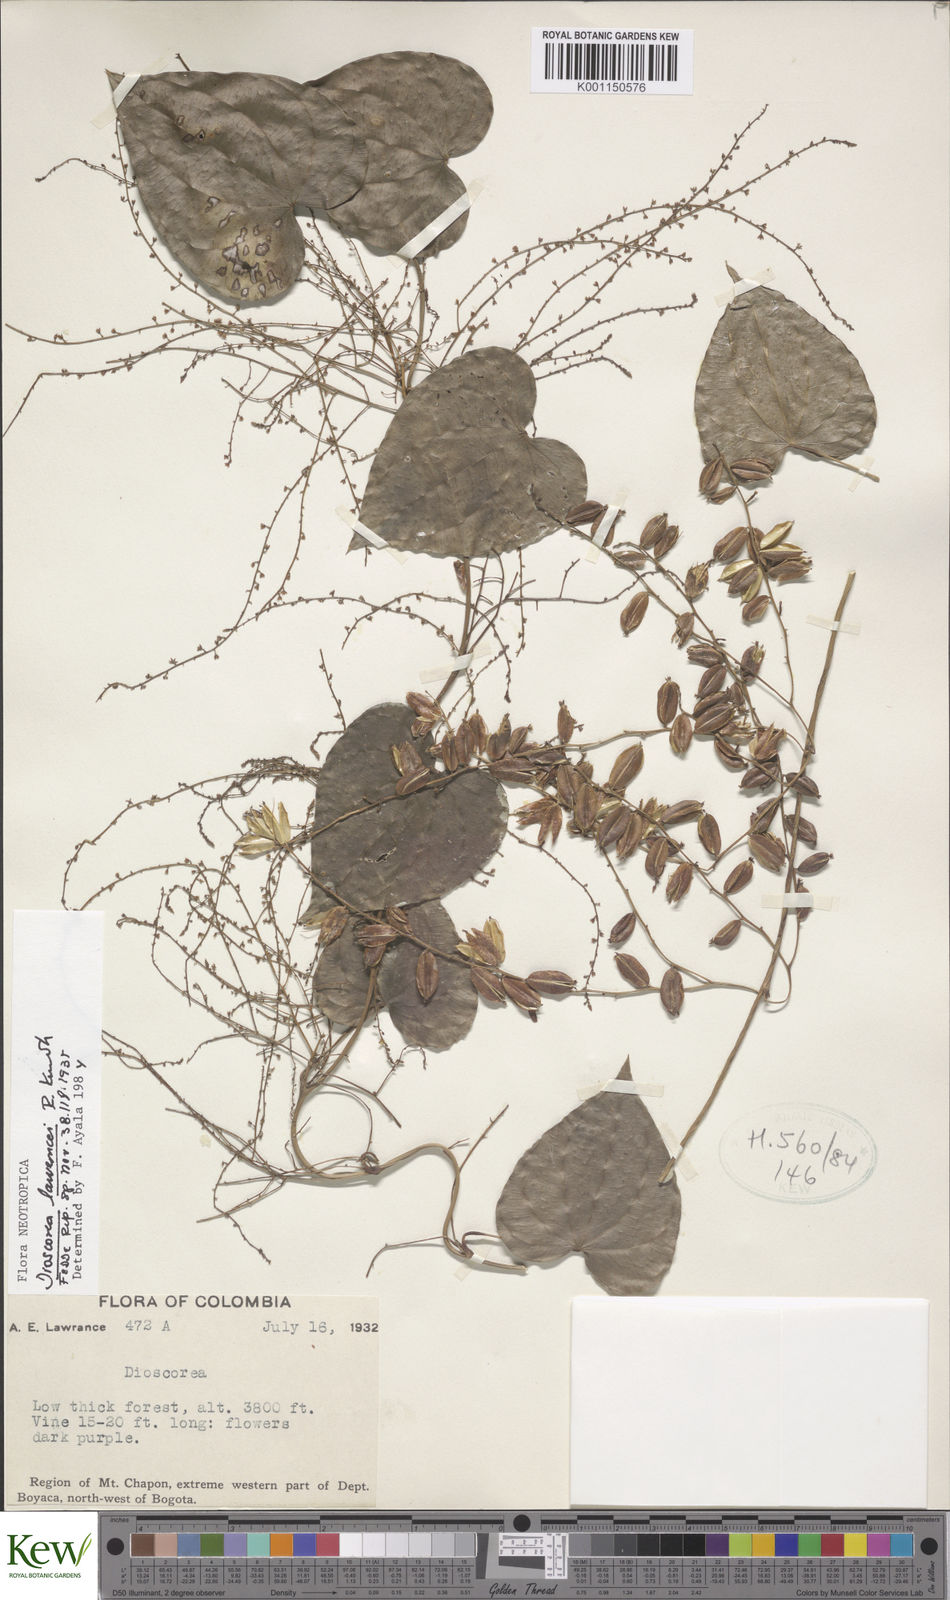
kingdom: Plantae
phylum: Tracheophyta
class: Liliopsida
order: Dioscoreales
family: Dioscoreaceae
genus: Dioscorea
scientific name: Dioscorea lawrancei
